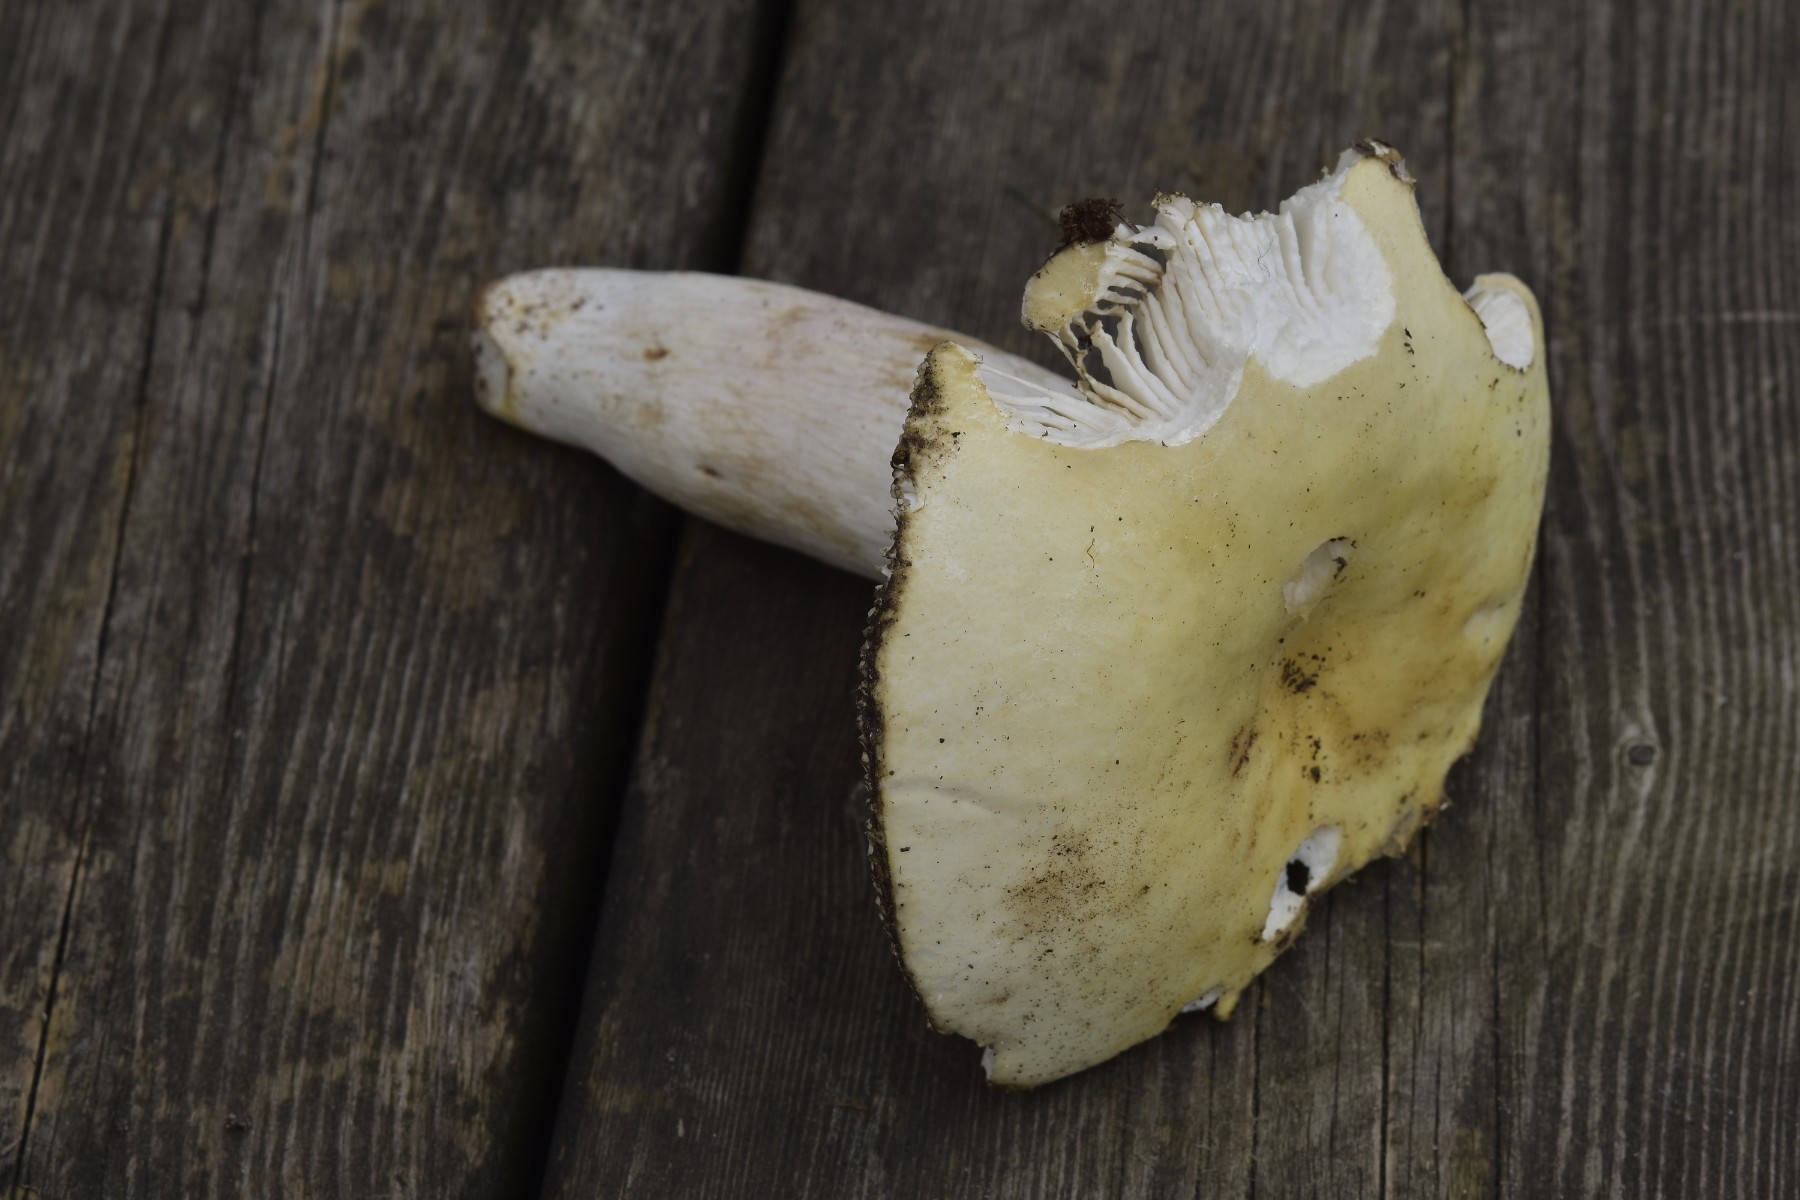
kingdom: Fungi
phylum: Basidiomycota
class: Agaricomycetes
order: Russulales
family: Russulaceae
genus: Russula
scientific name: Russula violeipes
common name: ferskengul skørhat
